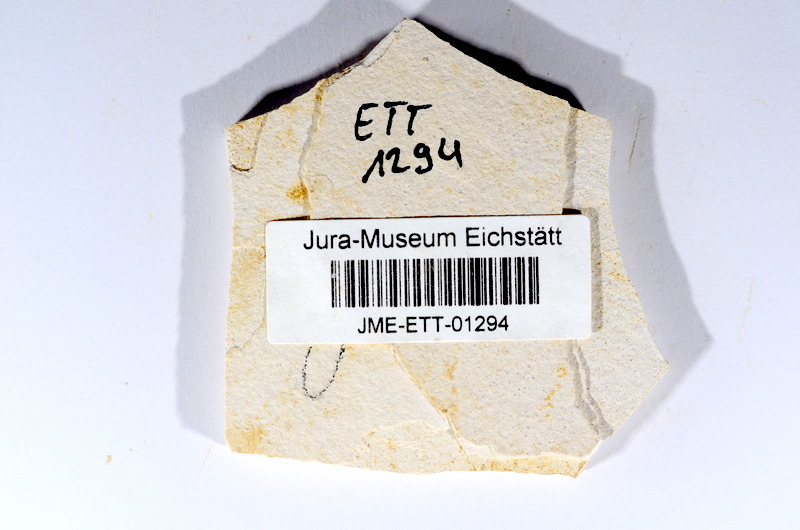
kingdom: Animalia
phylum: Chordata
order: Salmoniformes
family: Orthogonikleithridae
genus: Orthogonikleithrus
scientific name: Orthogonikleithrus hoelli
